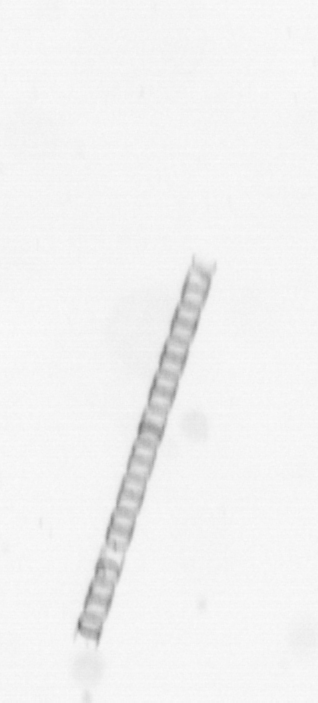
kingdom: Chromista
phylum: Ochrophyta
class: Bacillariophyceae
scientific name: Bacillariophyceae
